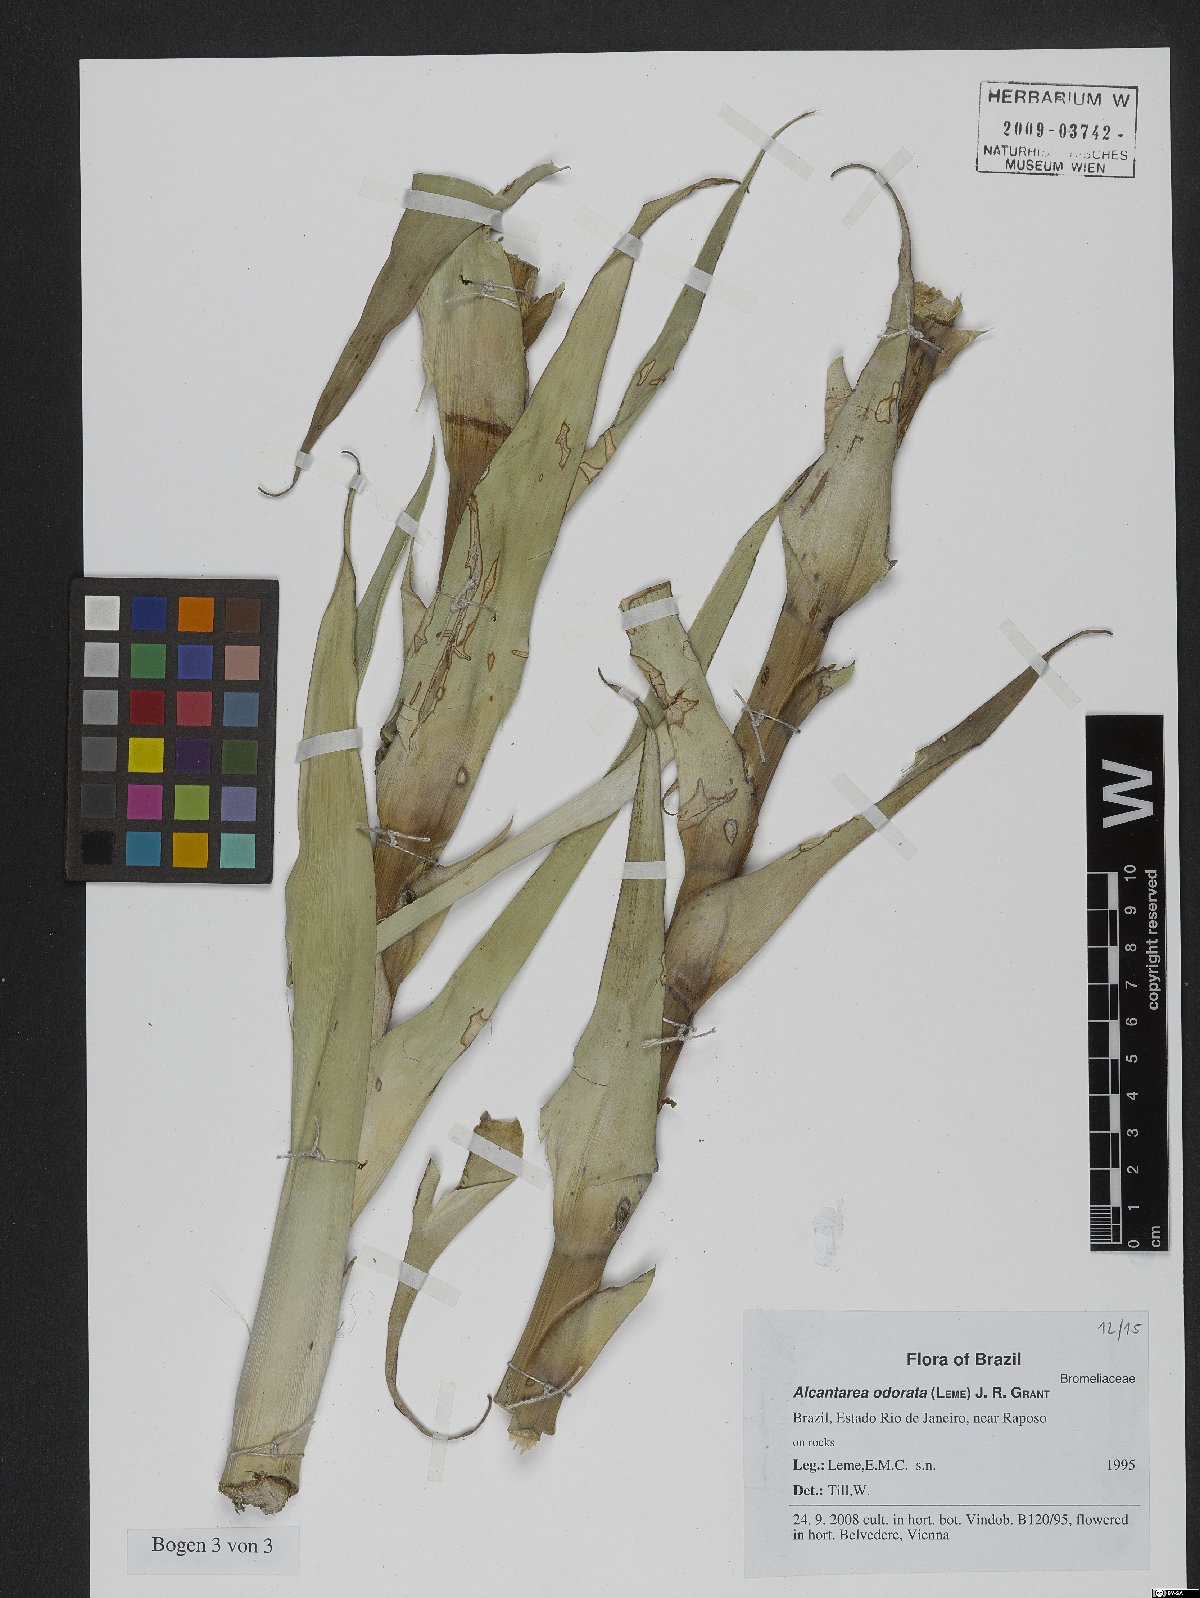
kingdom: Plantae
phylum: Tracheophyta
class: Liliopsida
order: Poales
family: Bromeliaceae
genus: Alcantarea
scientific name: Alcantarea odorata
